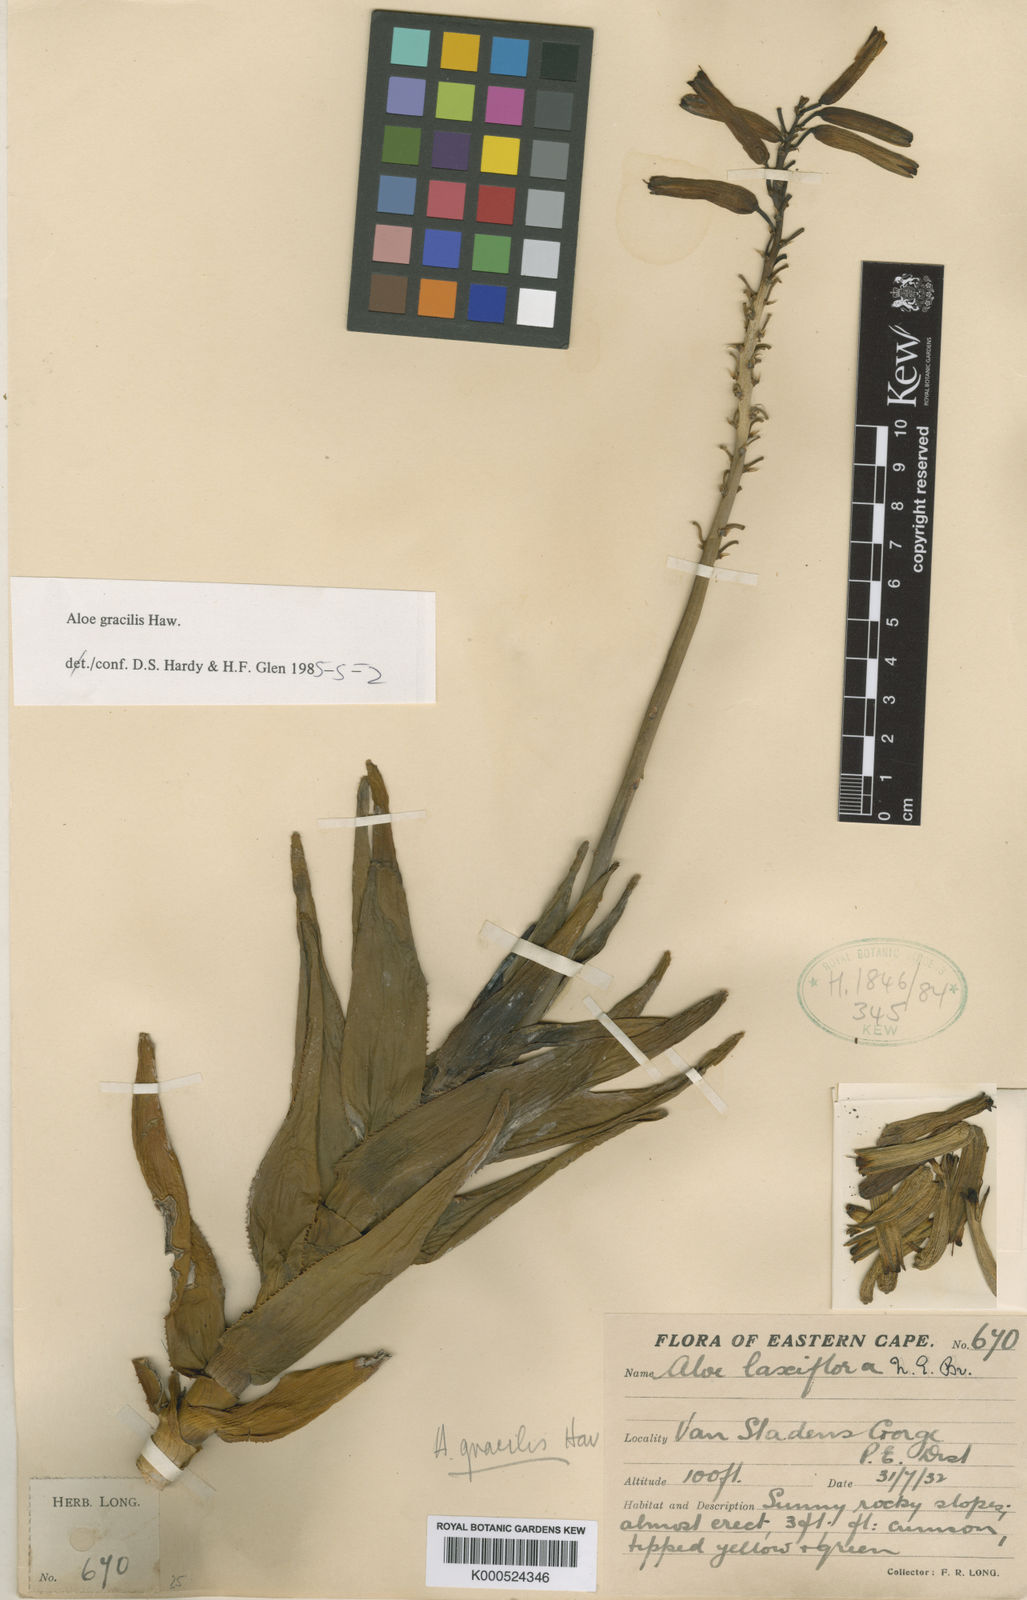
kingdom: Plantae
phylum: Tracheophyta
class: Liliopsida
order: Asparagales
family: Asphodelaceae
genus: Aloiampelos
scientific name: Aloiampelos gracilis
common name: Scrambling aloe
